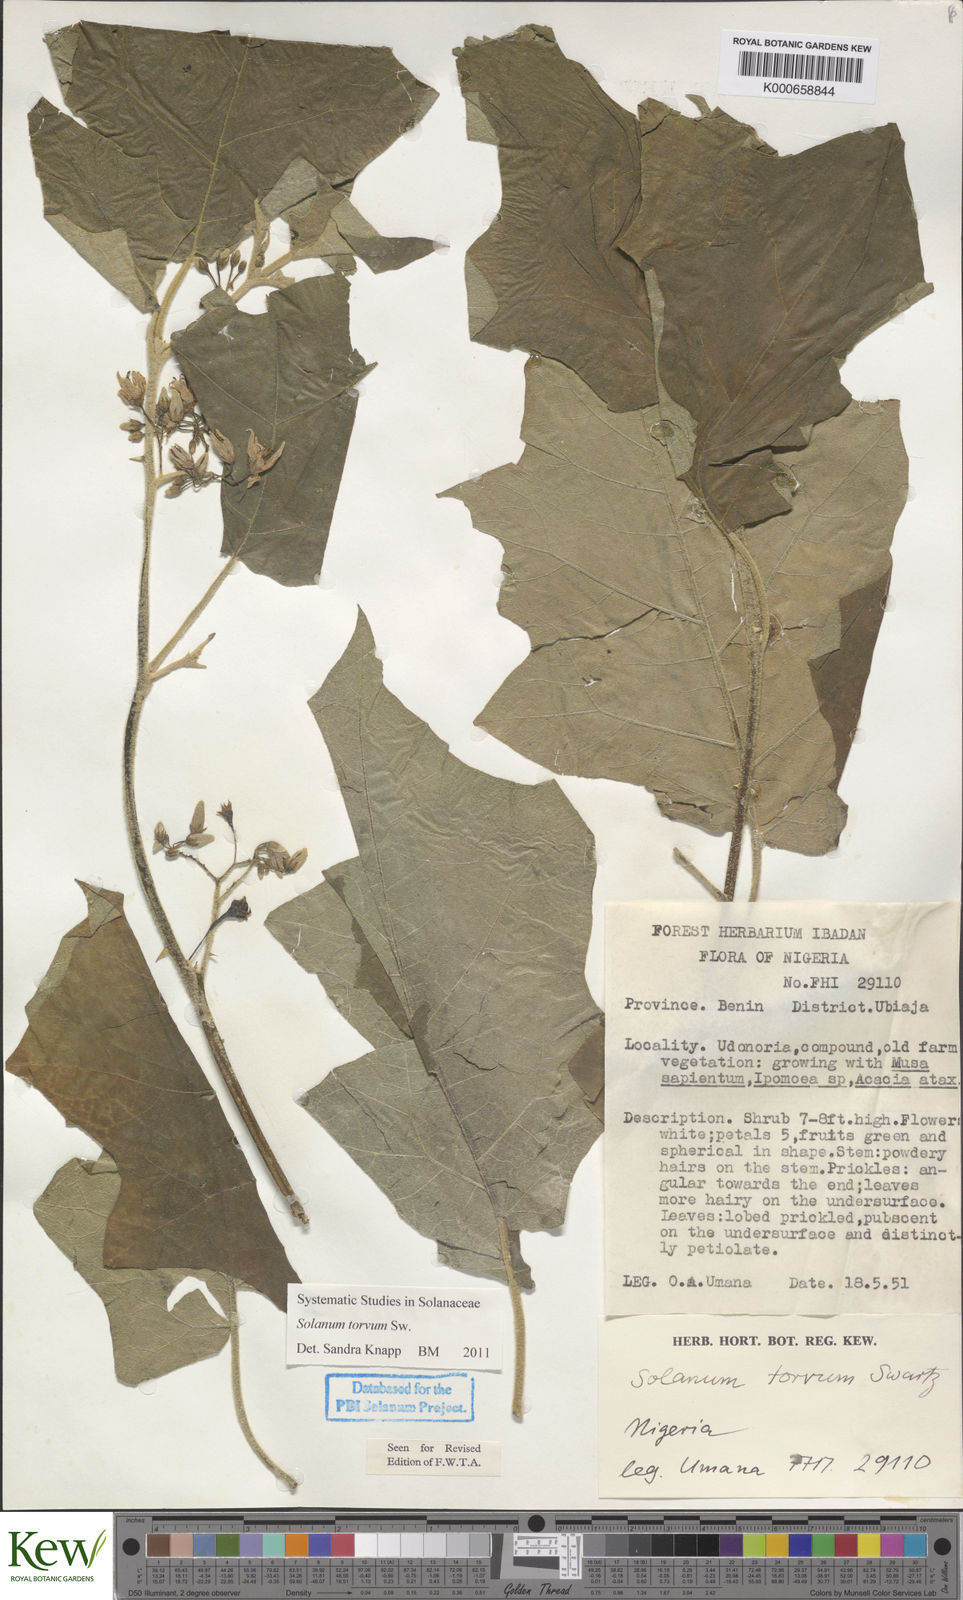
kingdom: Plantae
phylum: Tracheophyta
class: Magnoliopsida
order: Solanales
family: Solanaceae
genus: Solanum
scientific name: Solanum torvum
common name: Turkey berry
